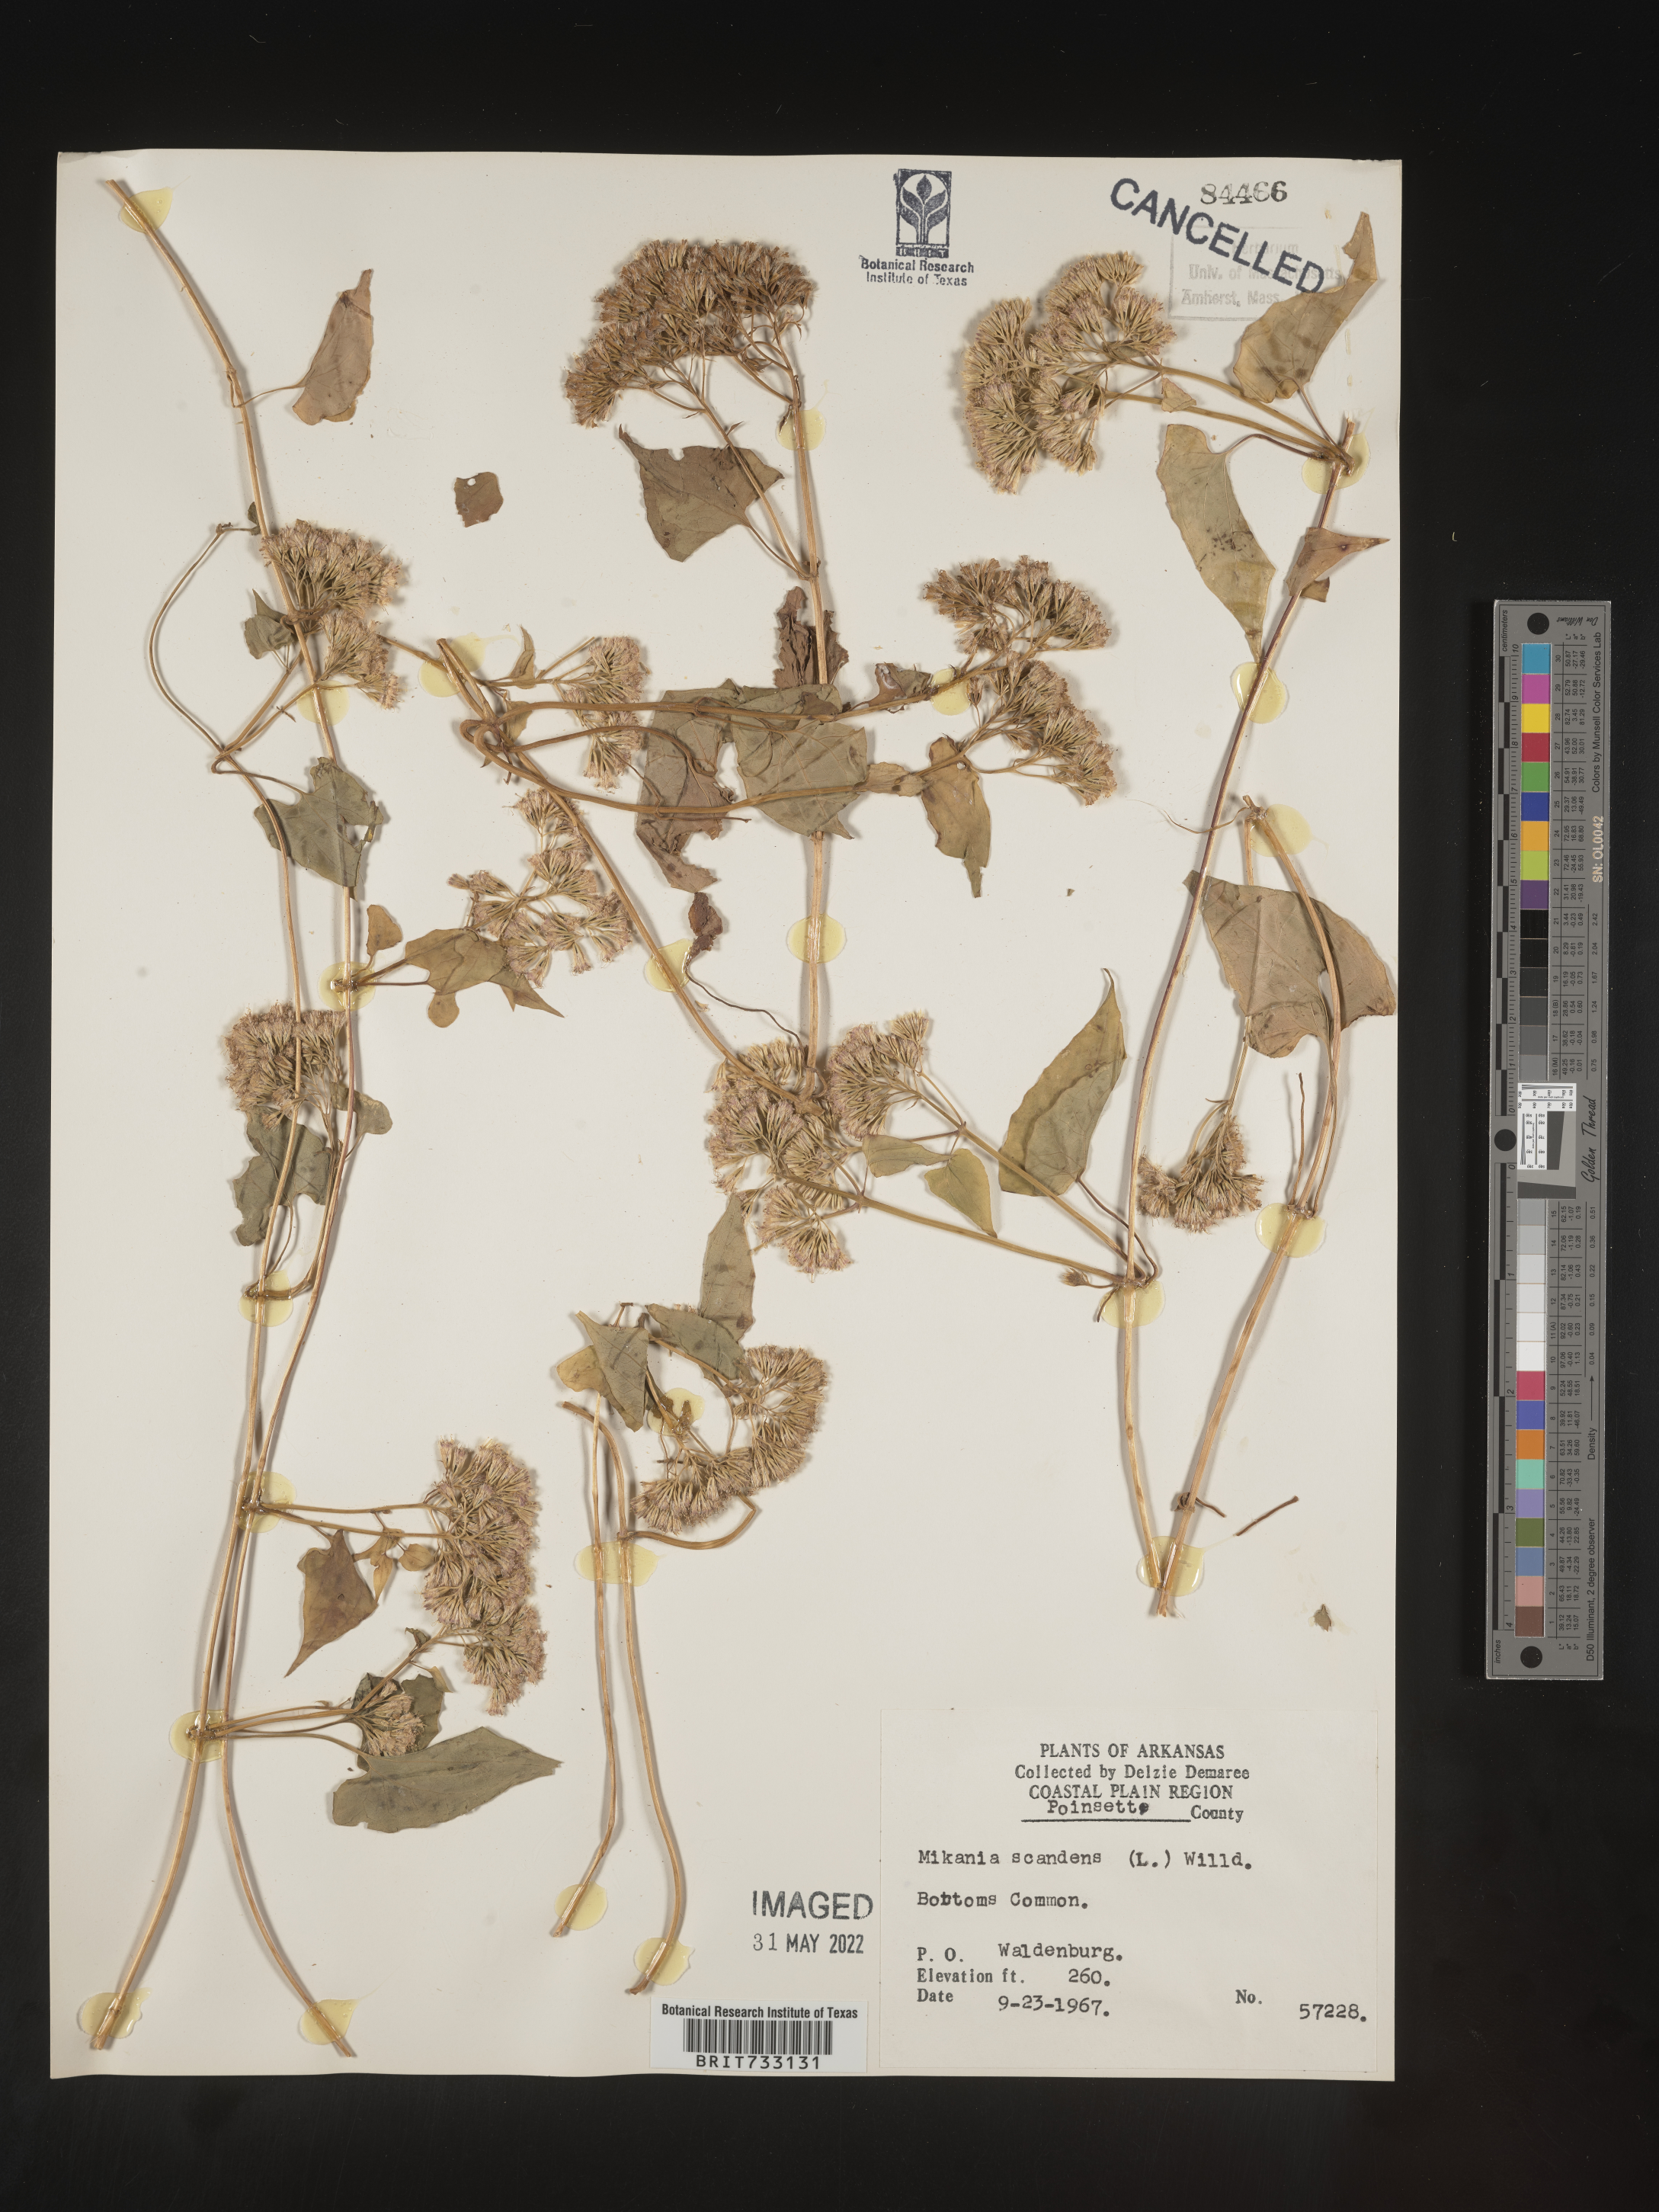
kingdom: Plantae
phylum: Tracheophyta
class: Magnoliopsida
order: Asterales
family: Asteraceae
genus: Mikania
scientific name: Mikania scandens
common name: Climbing hempvine
